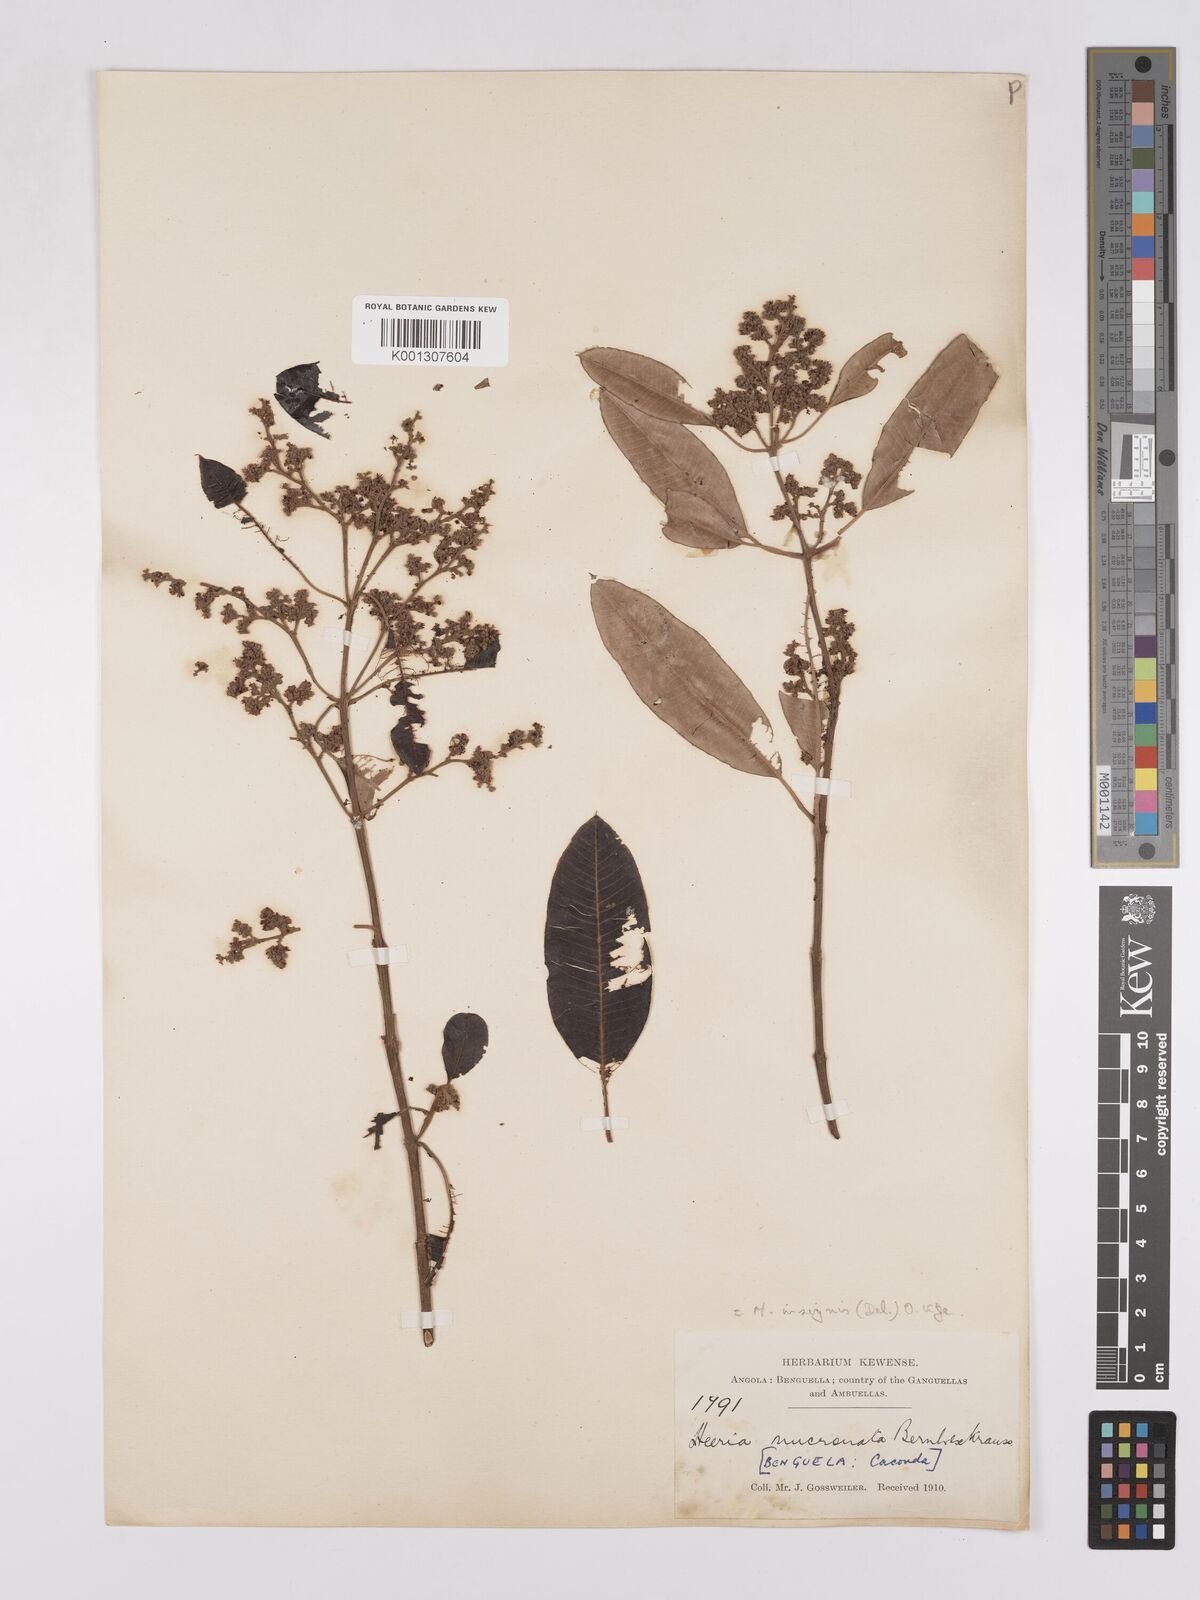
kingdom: Plantae
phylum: Tracheophyta
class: Magnoliopsida
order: Sapindales
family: Anacardiaceae
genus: Ozoroa
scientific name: Ozoroa insignis
